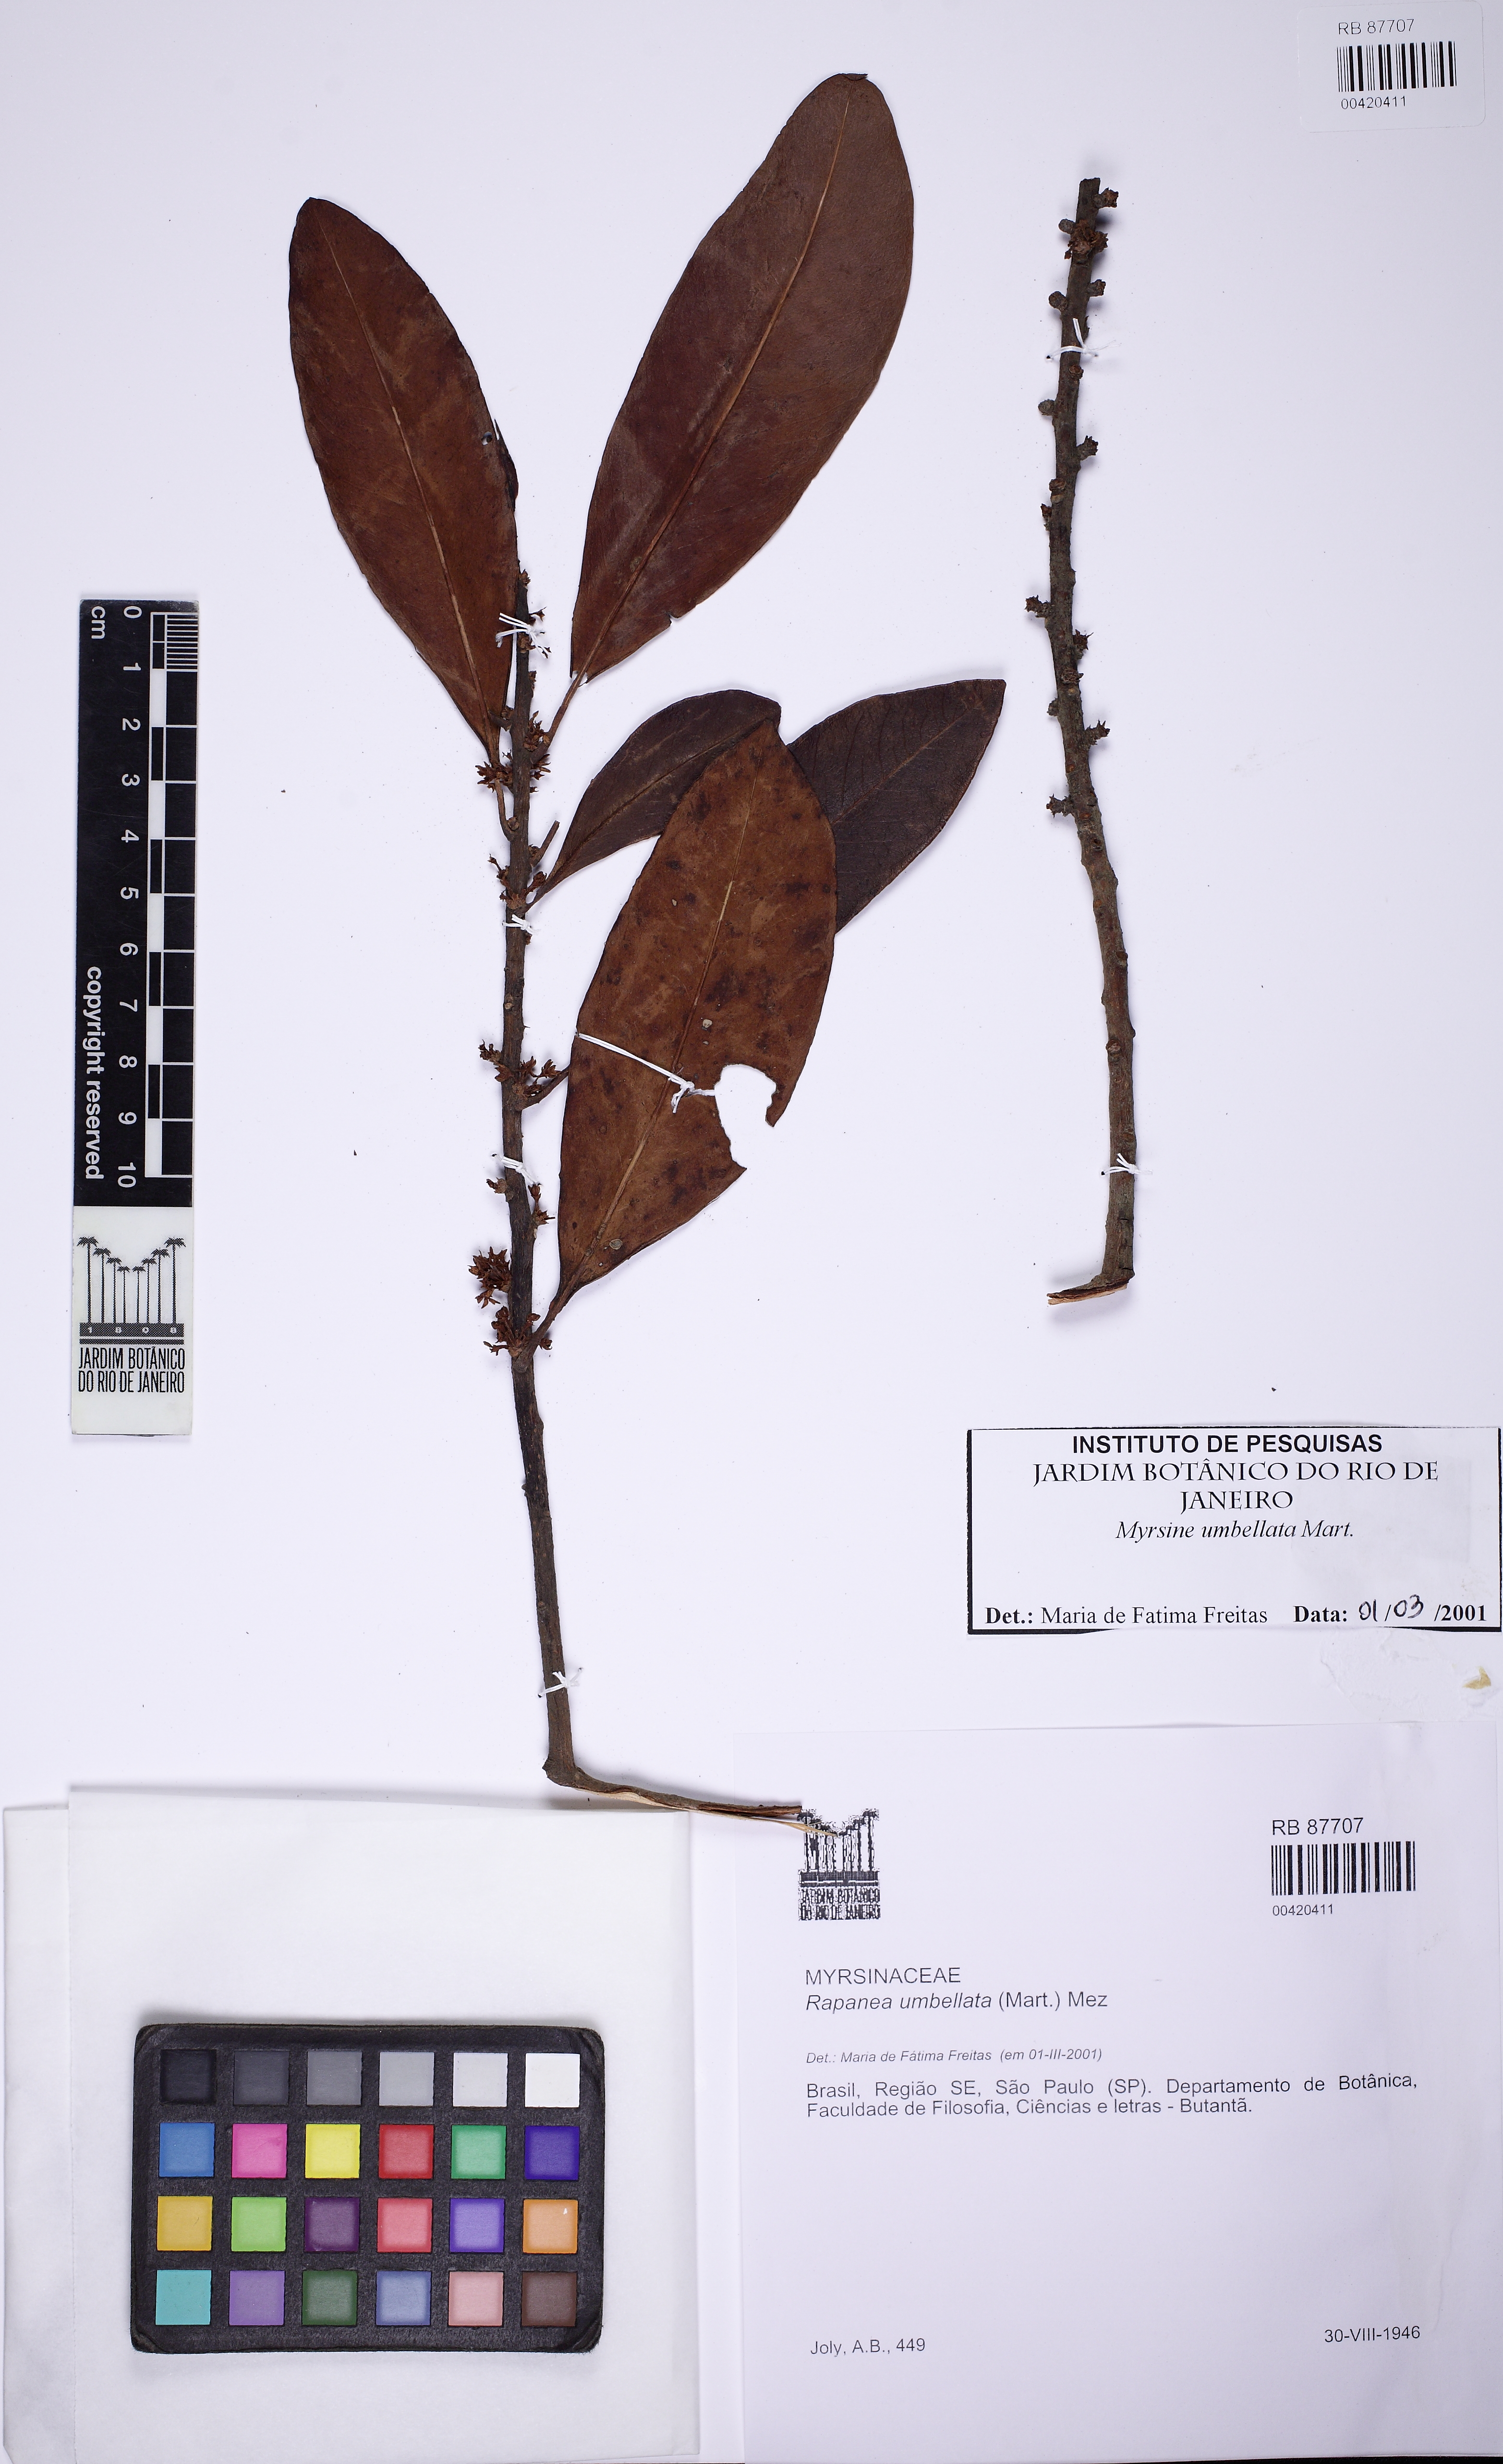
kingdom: Plantae
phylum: Tracheophyta
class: Magnoliopsida
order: Ericales
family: Primulaceae
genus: Myrsine
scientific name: Myrsine umbellata
